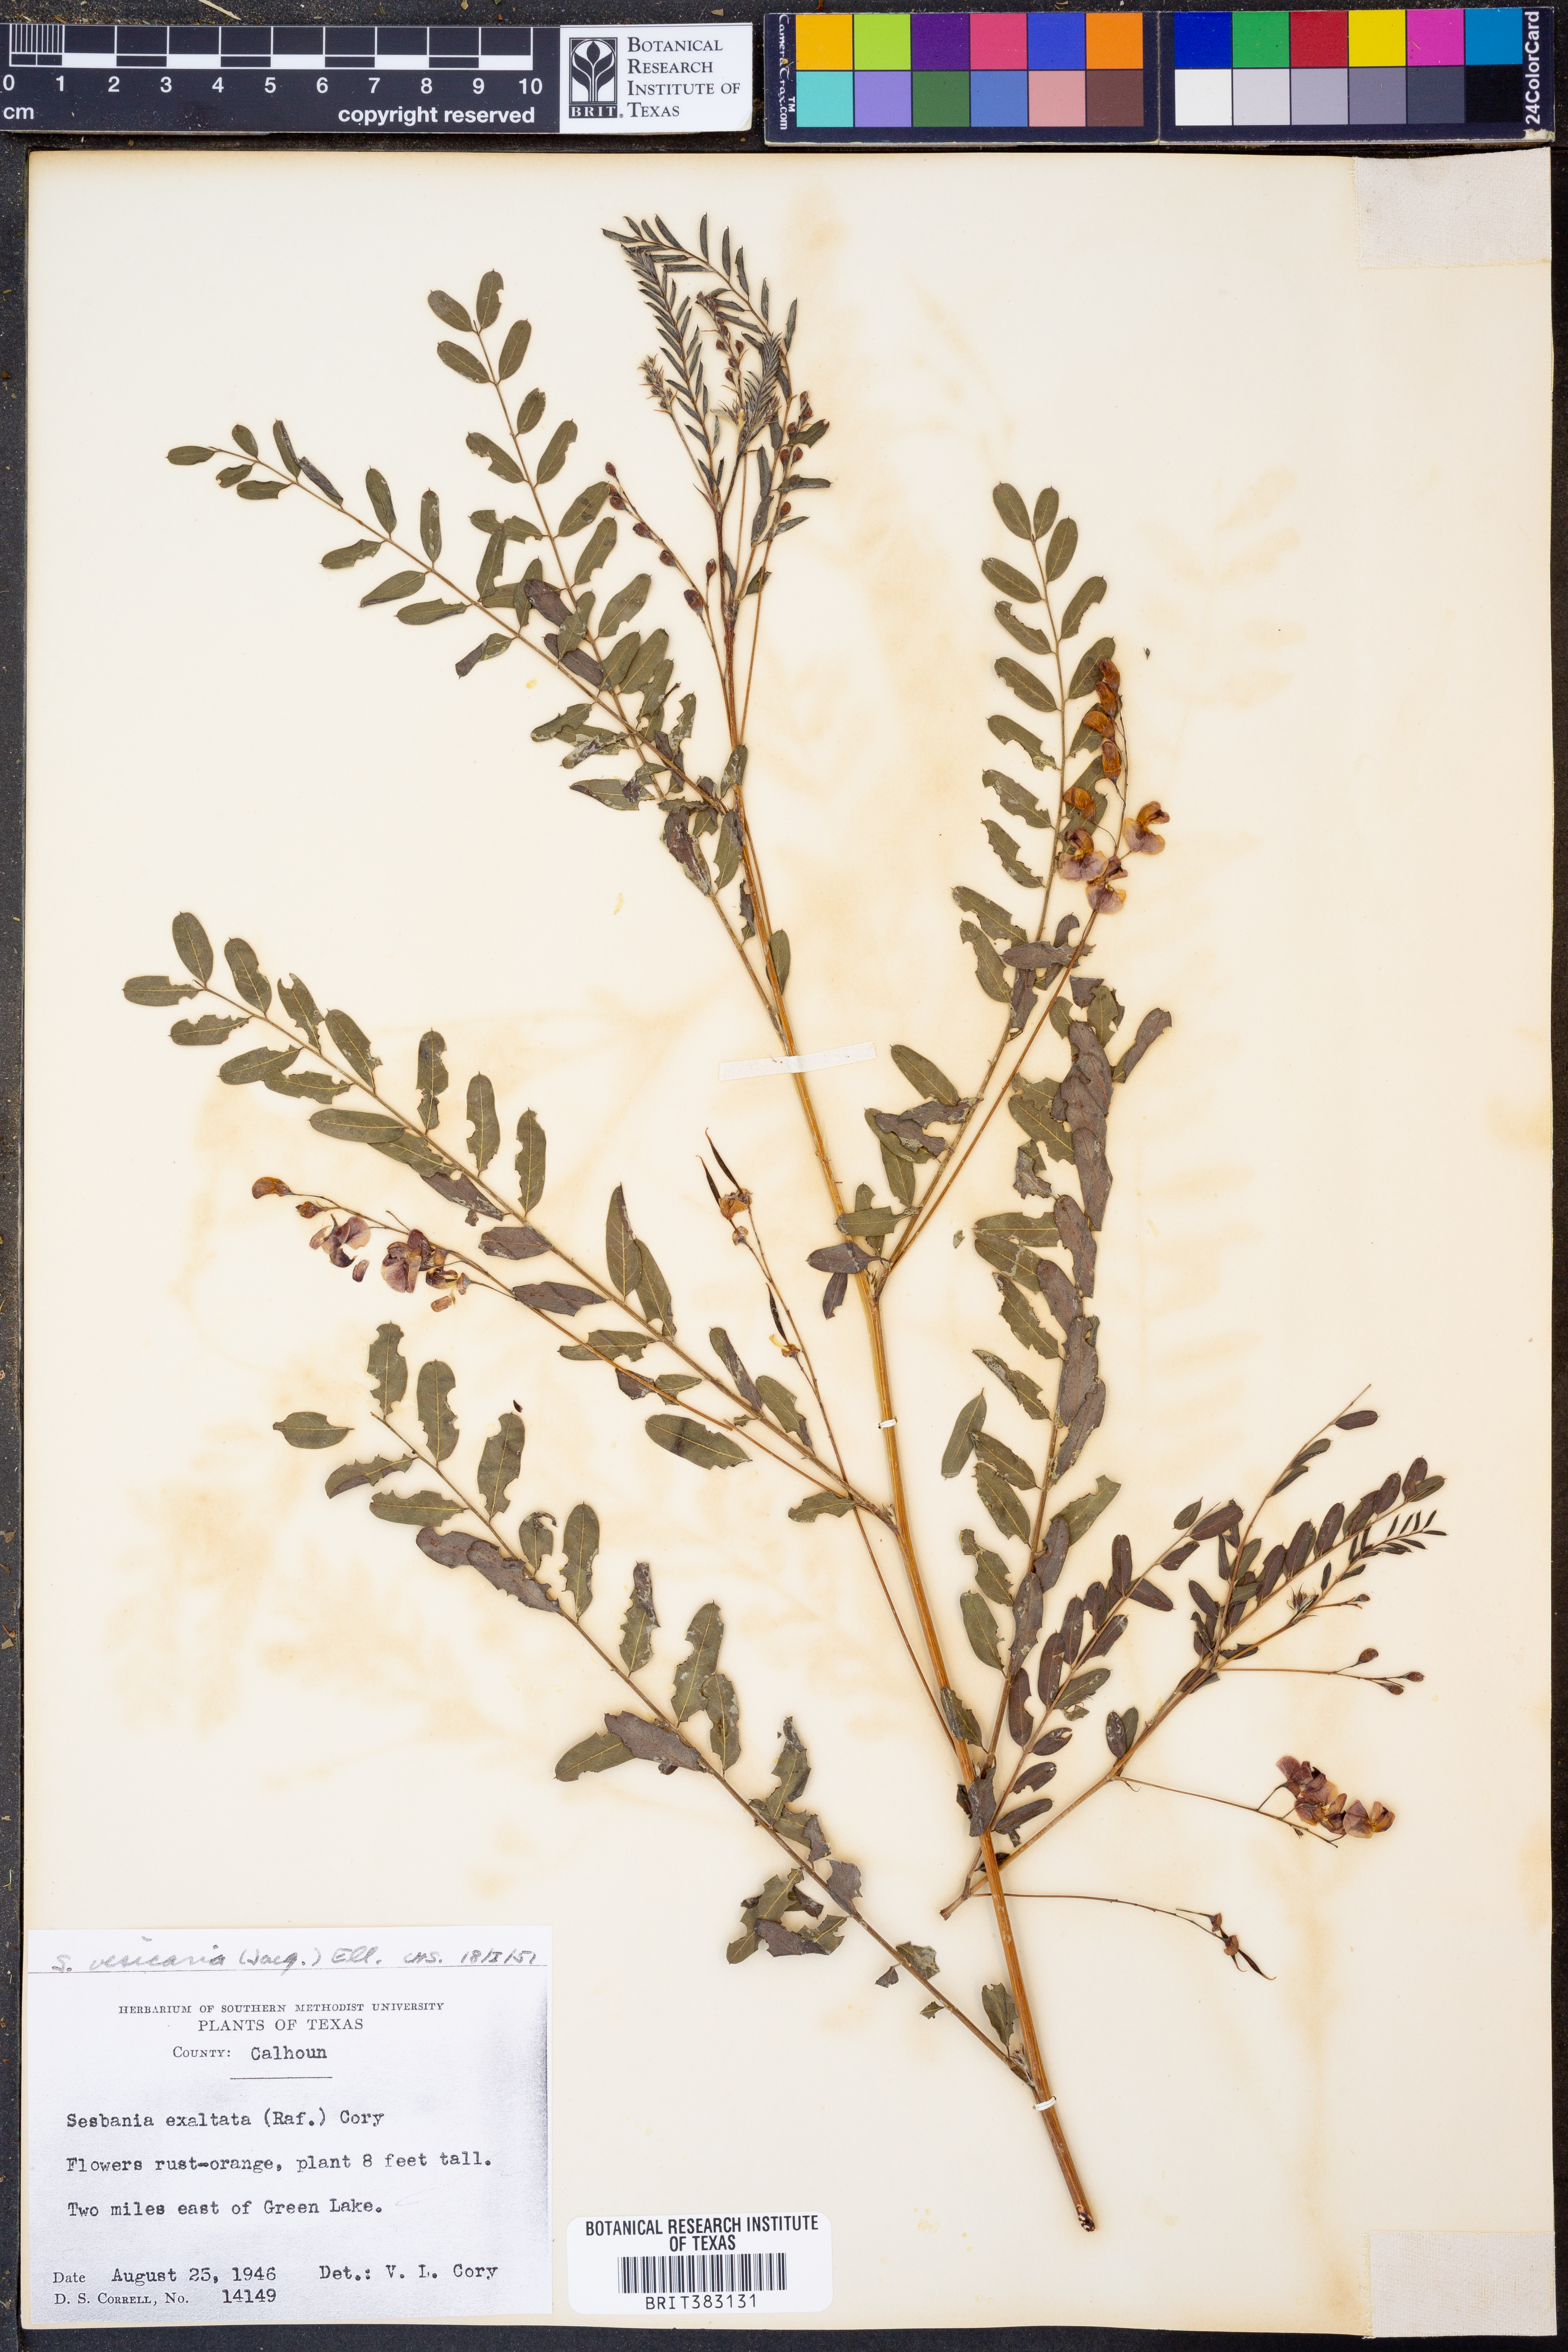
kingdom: Plantae
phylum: Tracheophyta
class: Magnoliopsida
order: Fabales
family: Fabaceae
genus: Sesbania
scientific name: Sesbania vesicaria
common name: Bagpod
